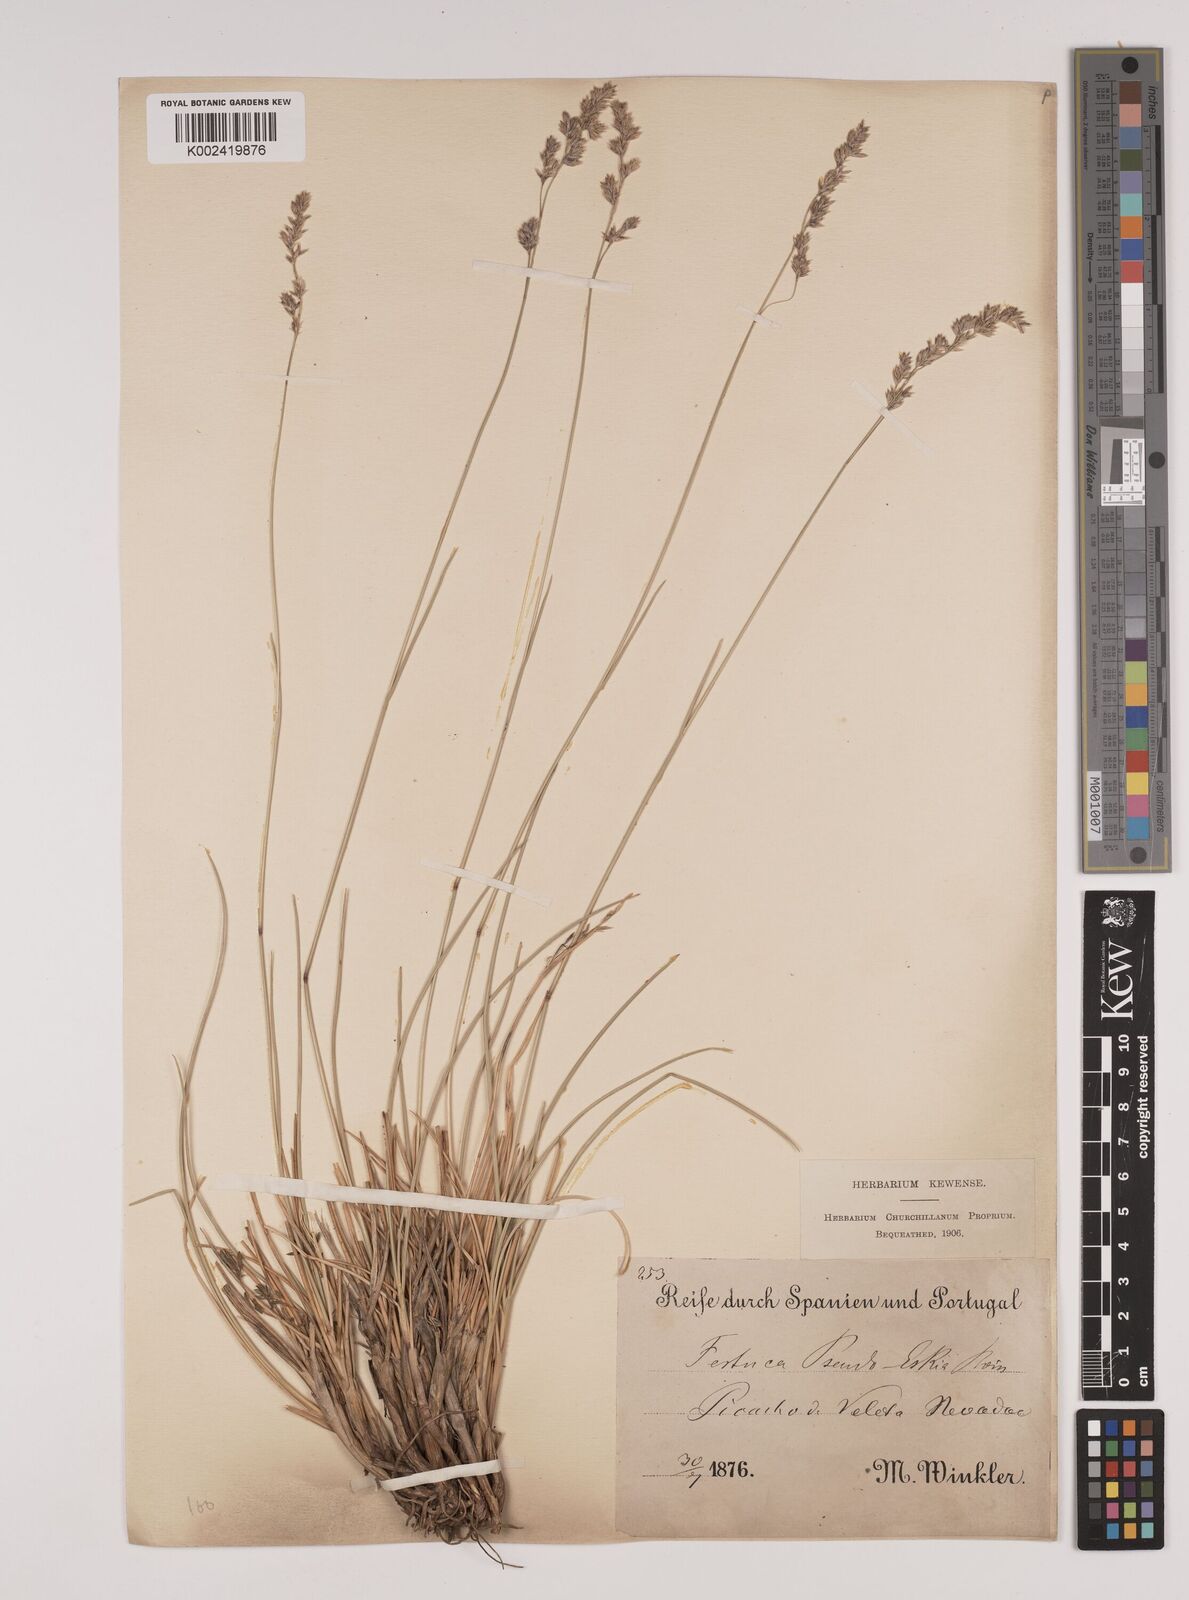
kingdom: Plantae
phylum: Tracheophyta
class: Liliopsida
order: Poales
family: Poaceae
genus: Festuca
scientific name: Festuca pseudeskia
